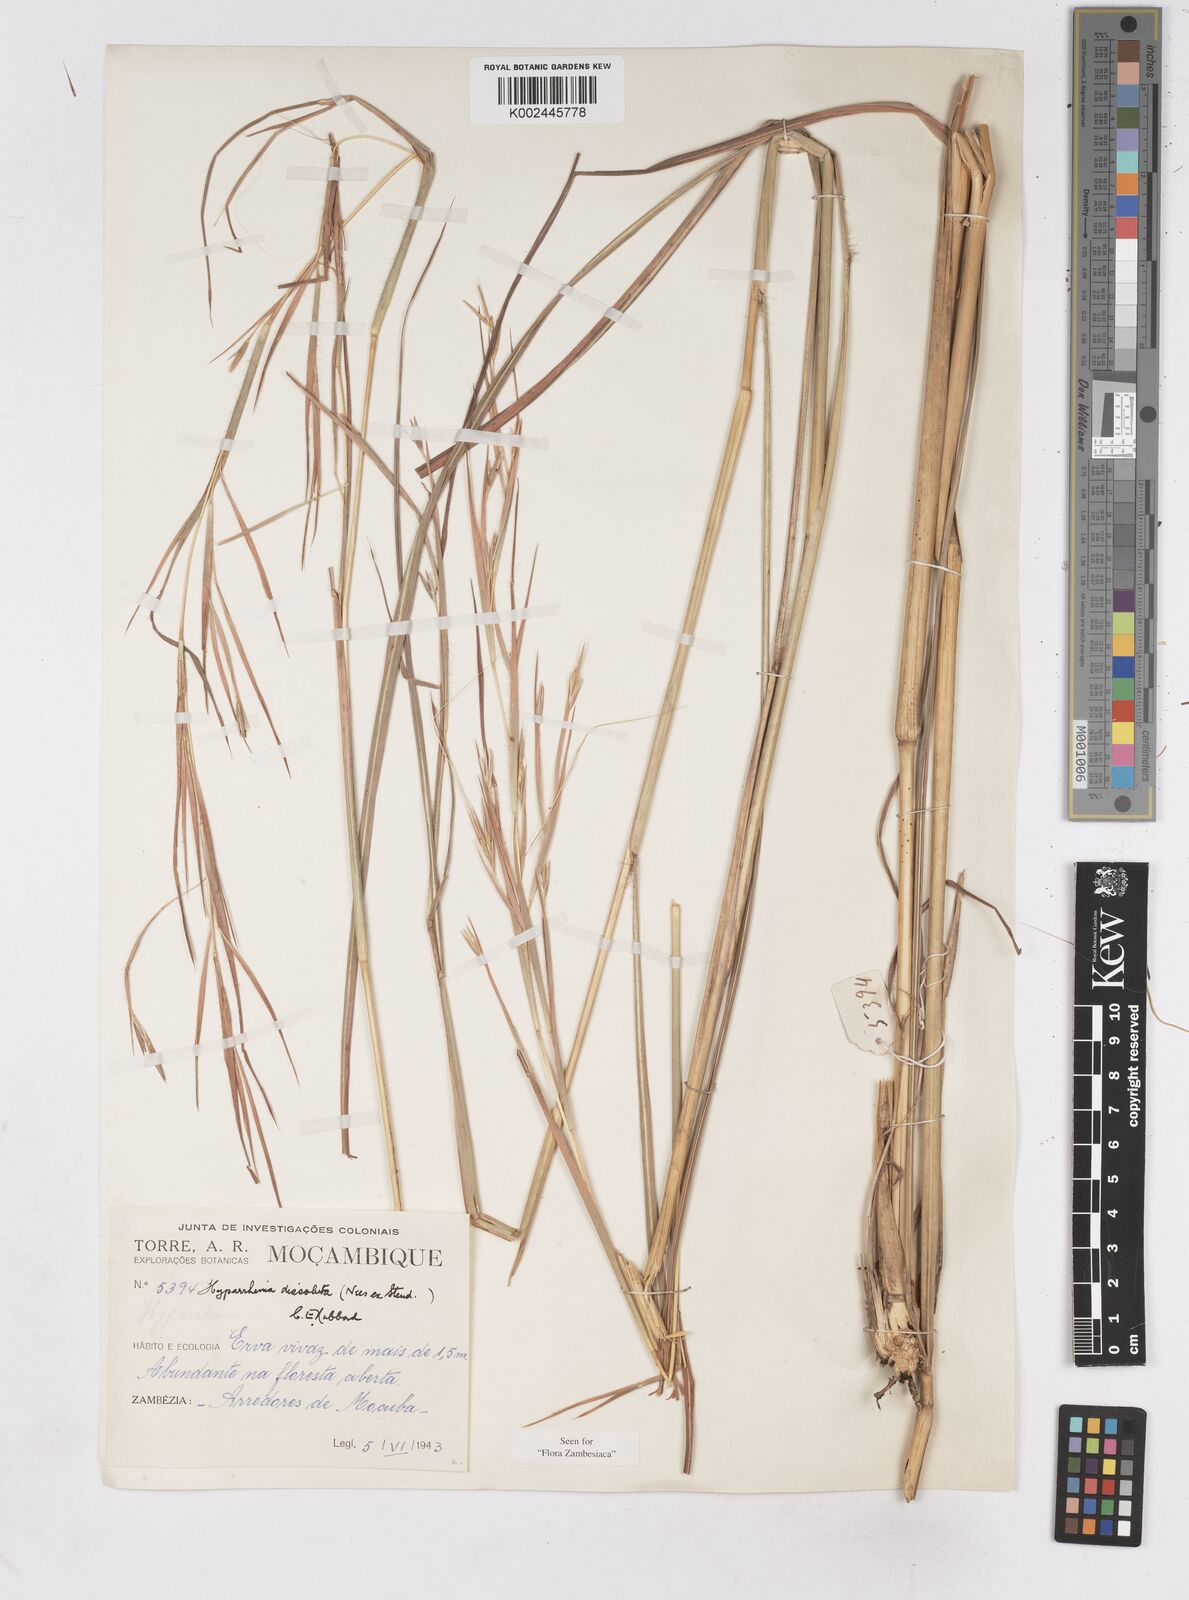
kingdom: Plantae
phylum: Tracheophyta
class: Liliopsida
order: Poales
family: Poaceae
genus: Hyperthelia
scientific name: Hyperthelia dissoluta
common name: Yellow thatching grass
